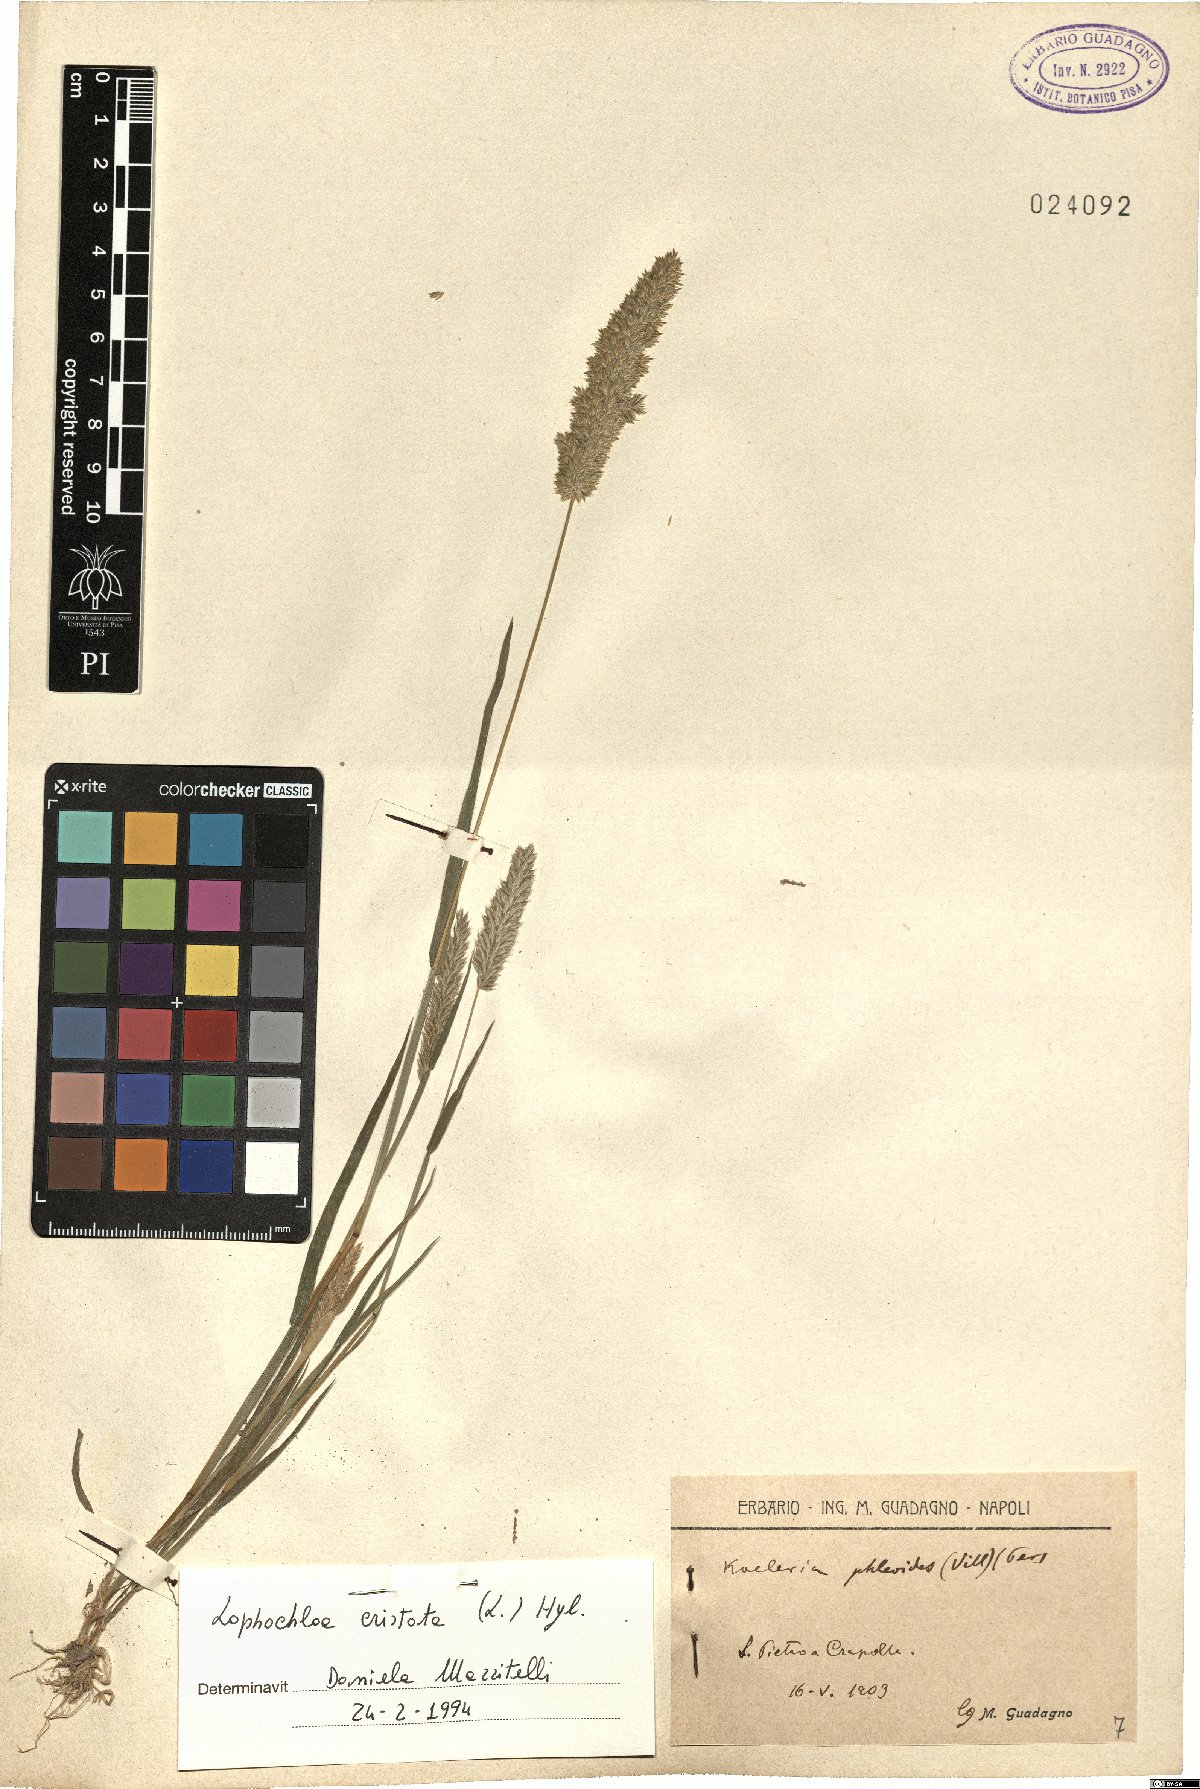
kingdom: Plantae
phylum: Tracheophyta
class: Liliopsida
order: Poales
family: Poaceae
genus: Rostraria
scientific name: Rostraria cristata
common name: Mediterranean hair-grass
